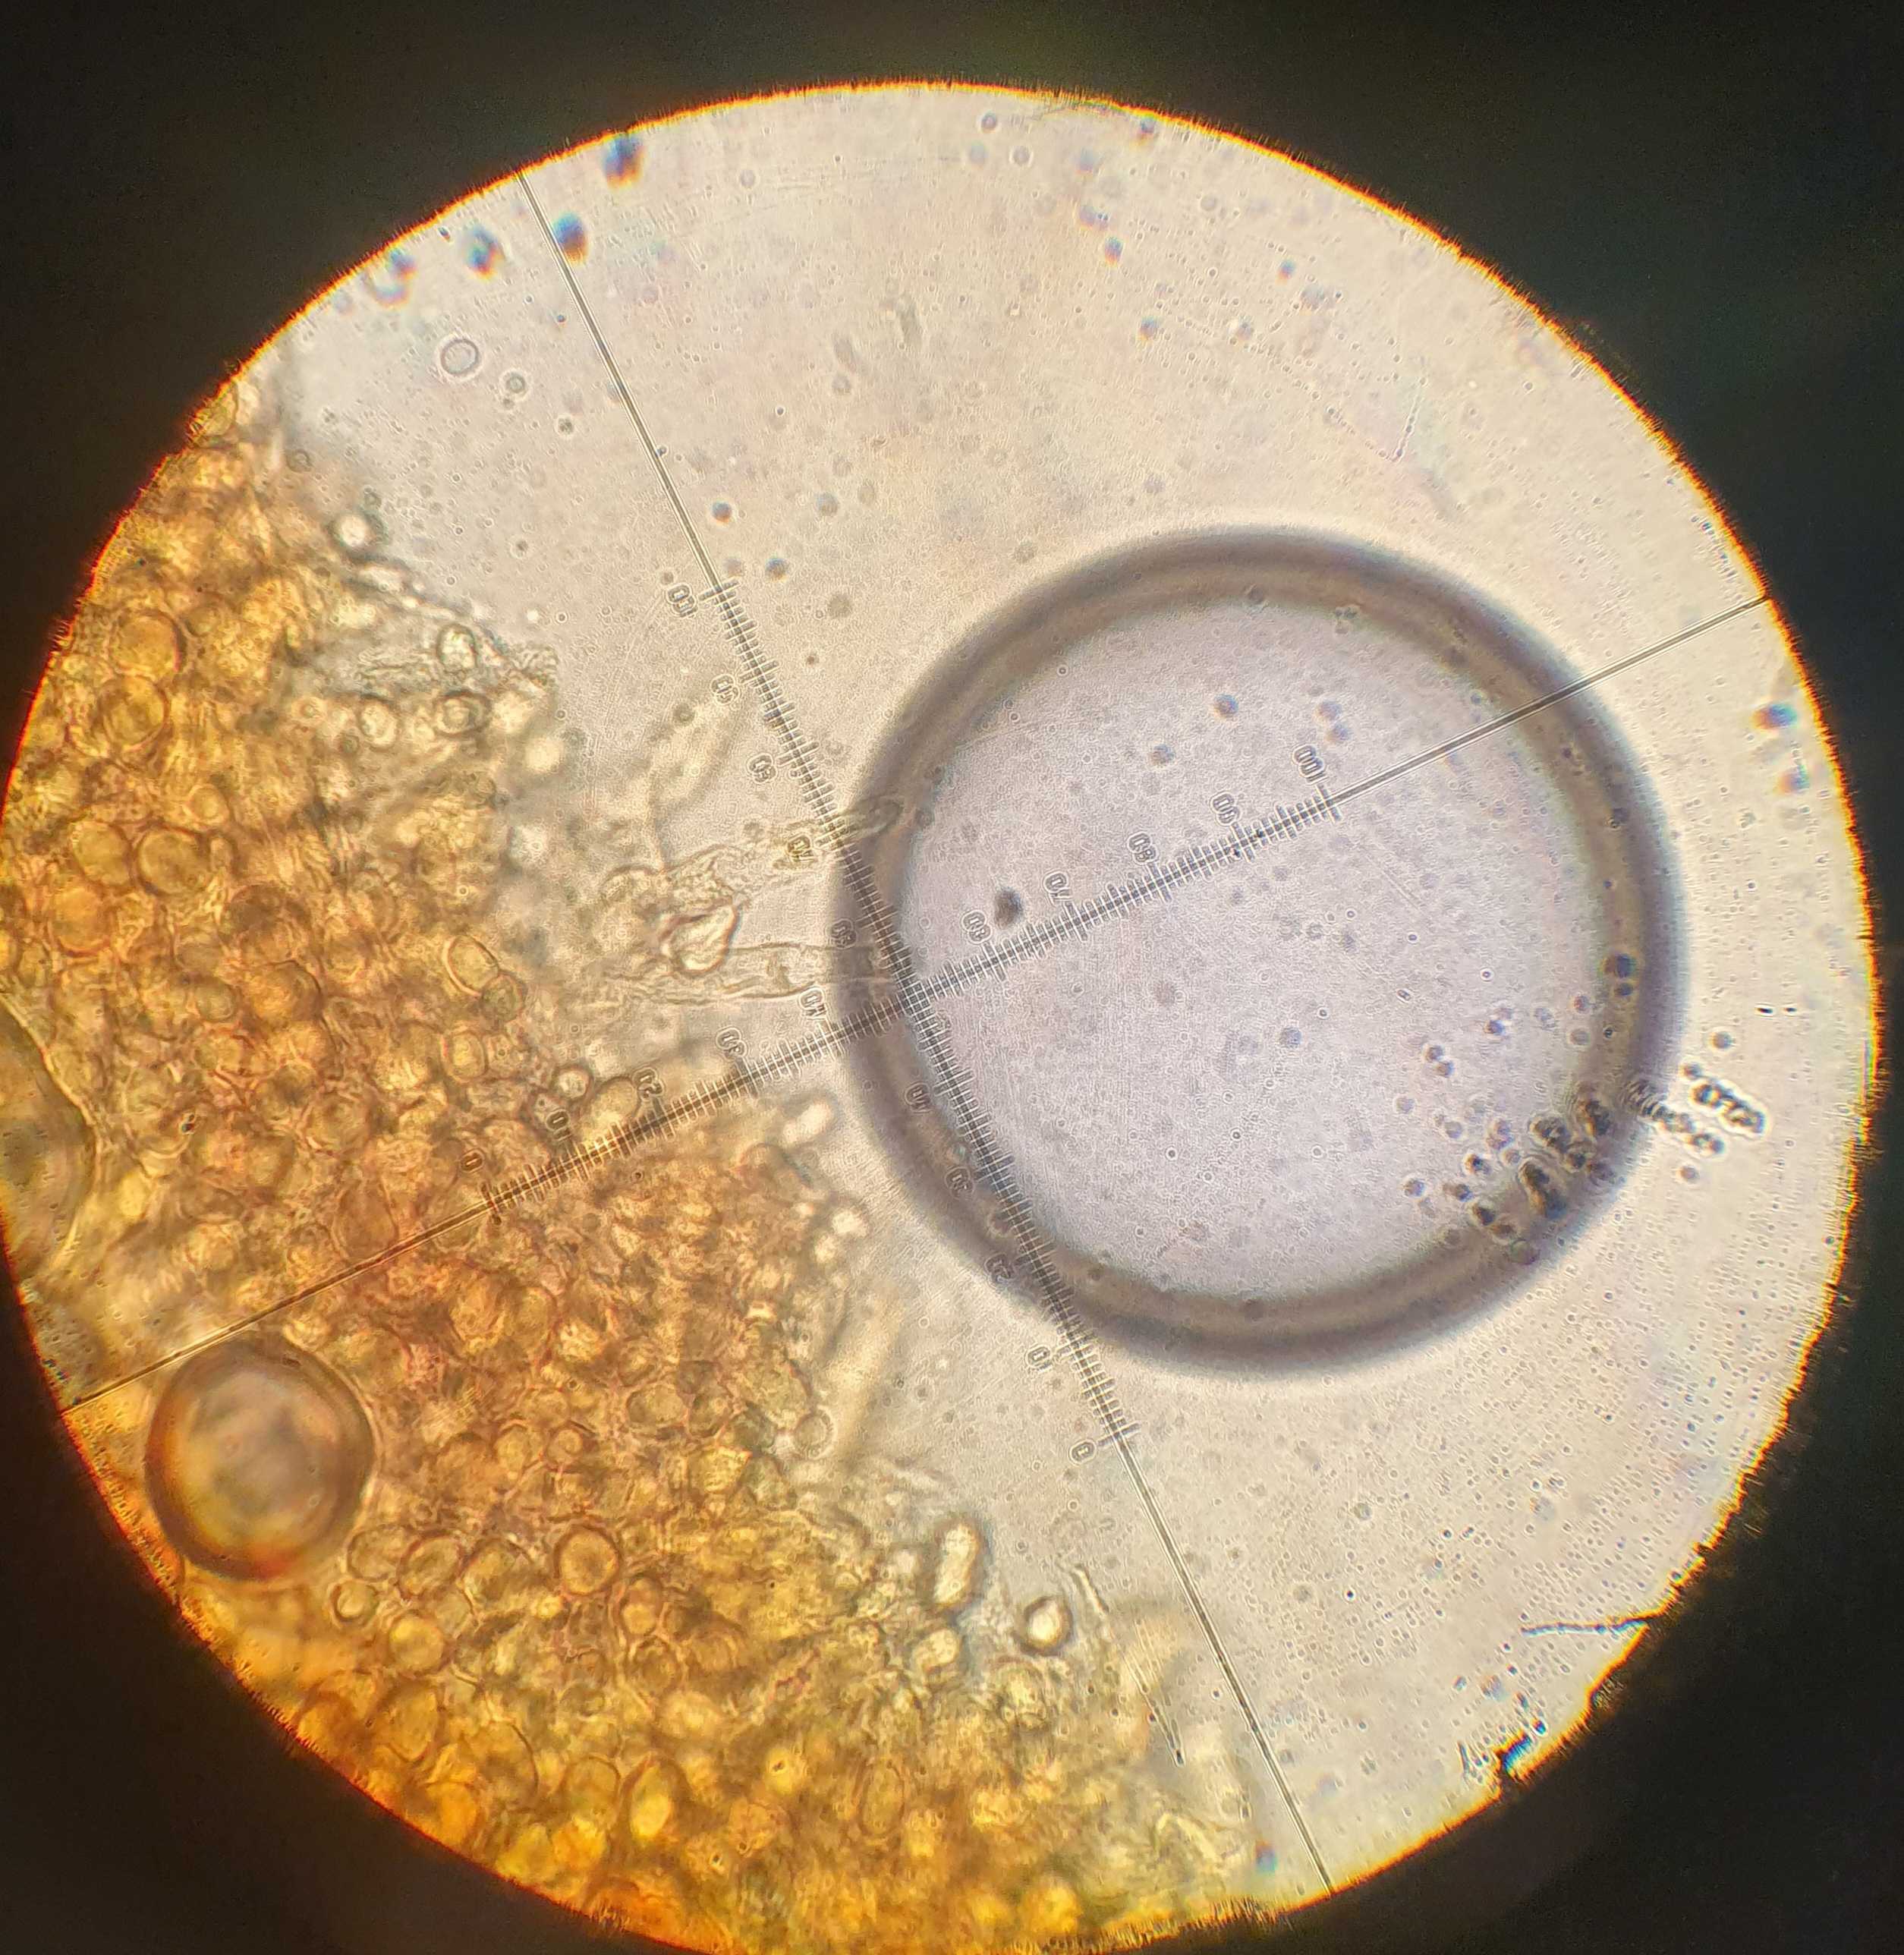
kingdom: Fungi
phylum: Basidiomycota
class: Agaricomycetes
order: Agaricales
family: Mycenaceae
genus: Mycena
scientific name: Mycena
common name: huesvamp
